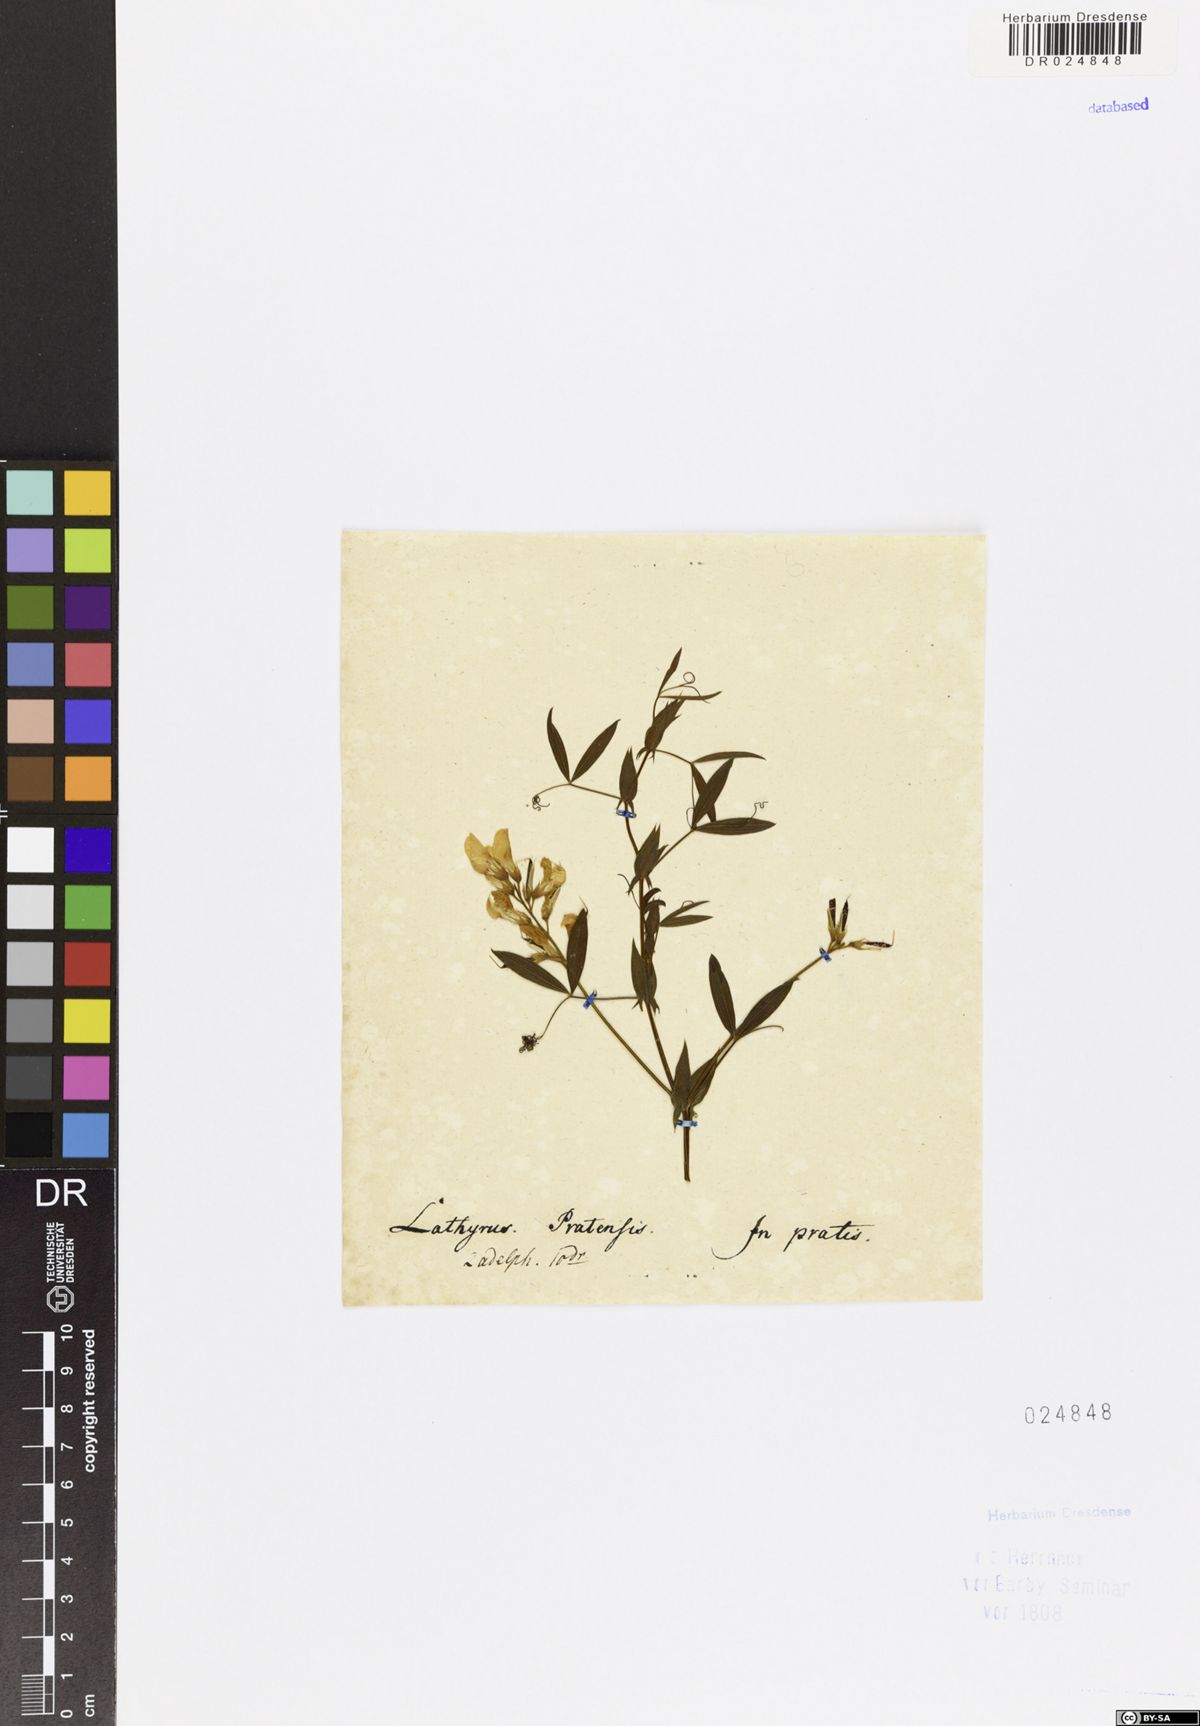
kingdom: Plantae
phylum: Tracheophyta
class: Magnoliopsida
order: Fabales
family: Fabaceae
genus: Lathyrus
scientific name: Lathyrus pratensis
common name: Meadow vetchling
